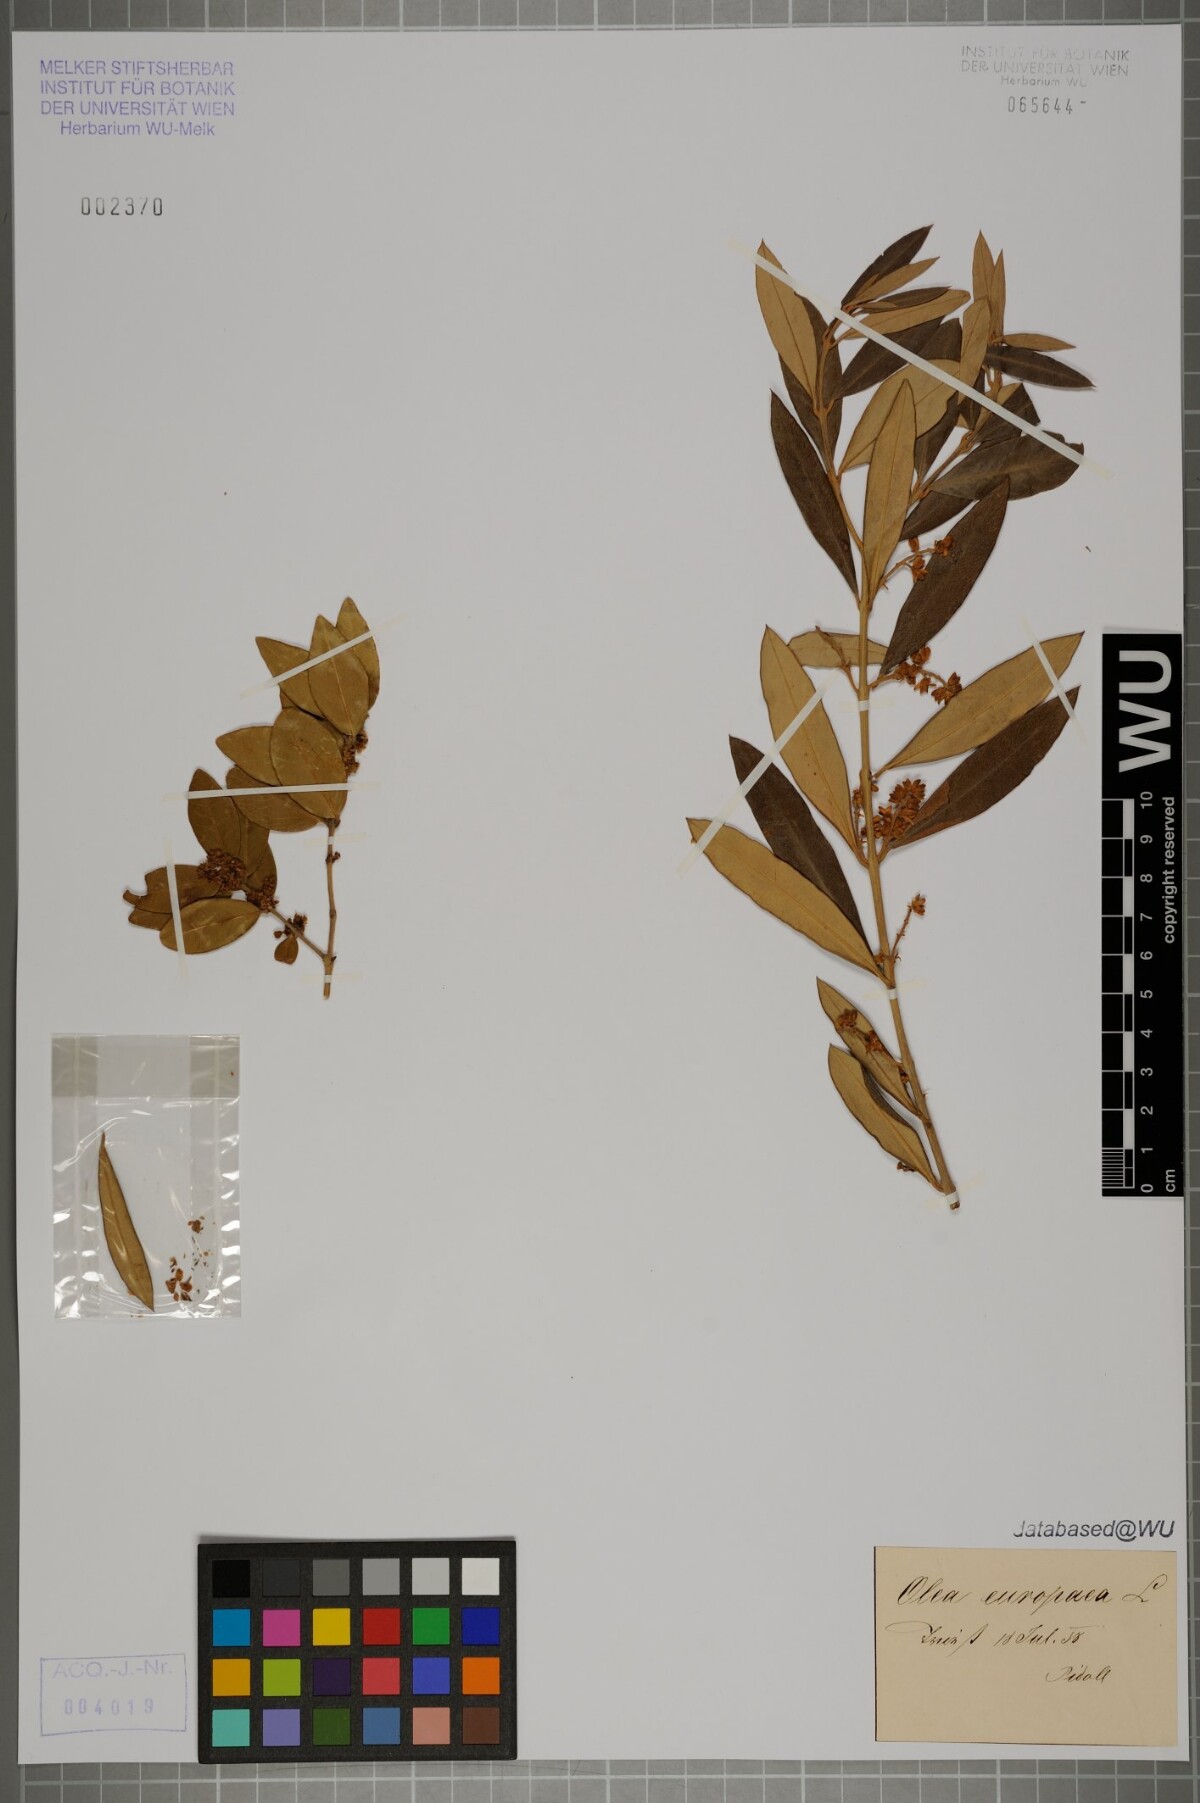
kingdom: Plantae
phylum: Tracheophyta
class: Magnoliopsida
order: Lamiales
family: Oleaceae
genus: Olea
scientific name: Olea europaea
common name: Olive
